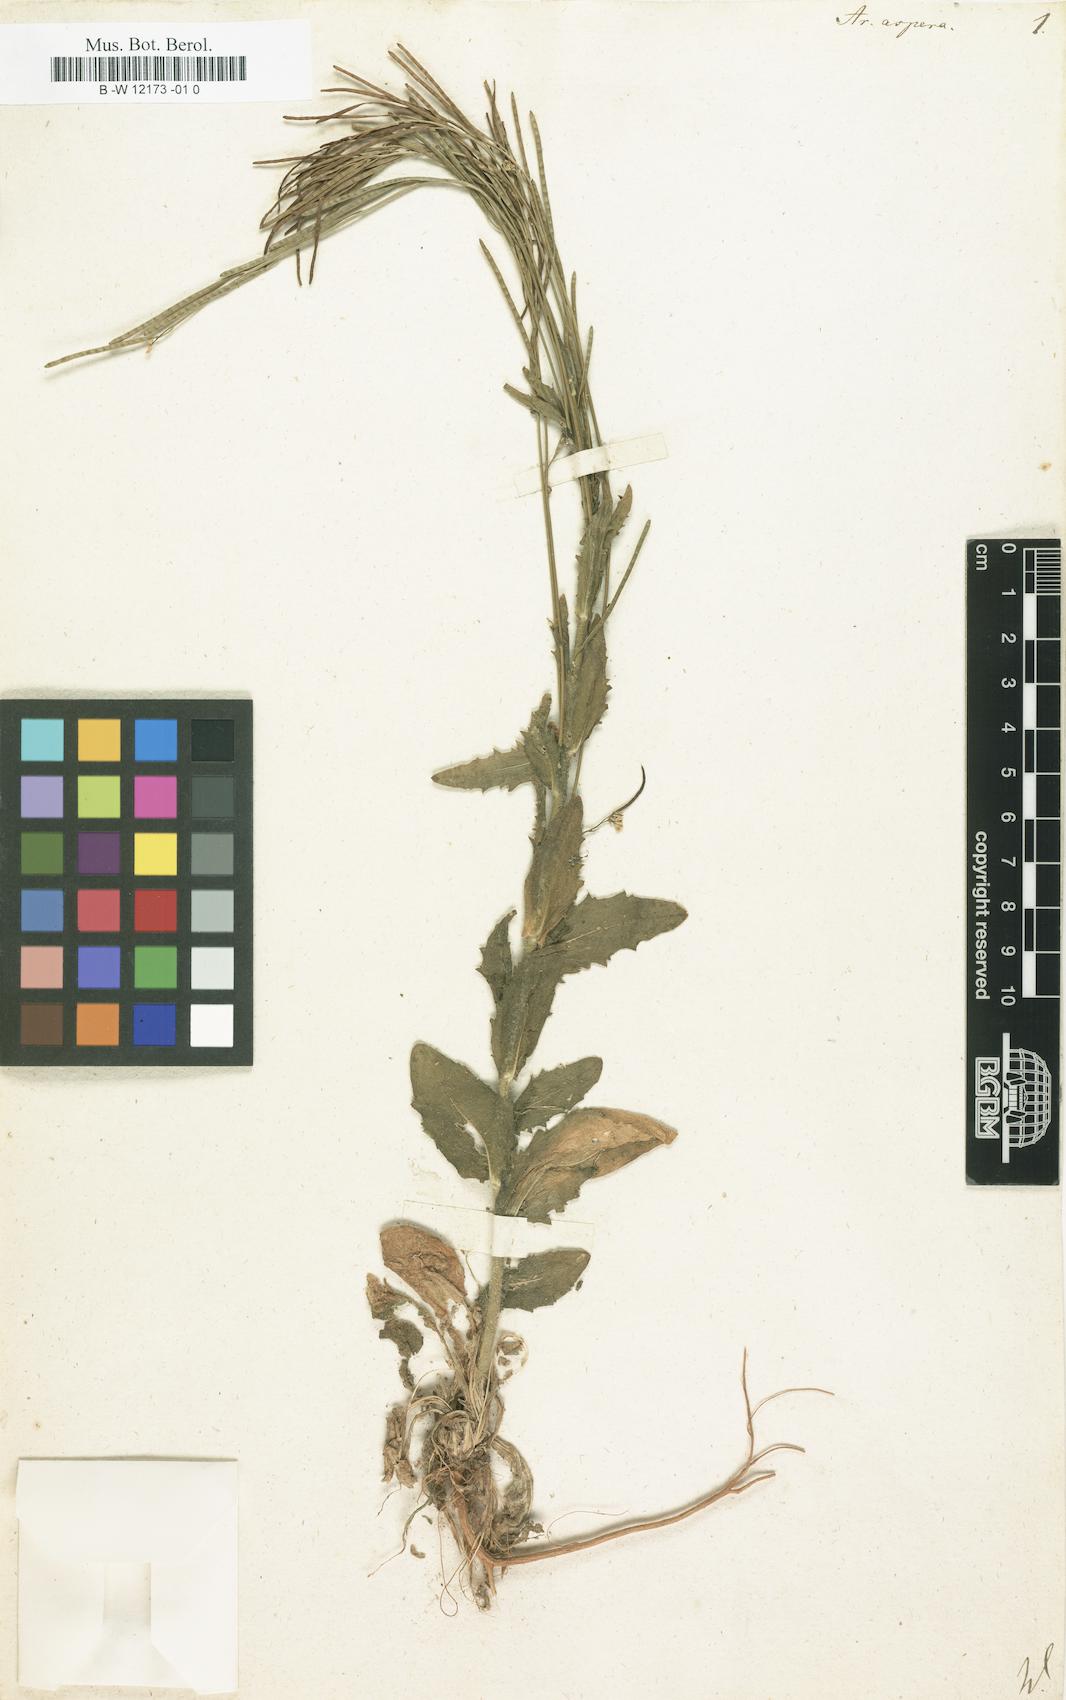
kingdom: Plantae
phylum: Tracheophyta
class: Magnoliopsida
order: Brassicales
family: Brassicaceae
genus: Arabis
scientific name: Arabis auriculata
